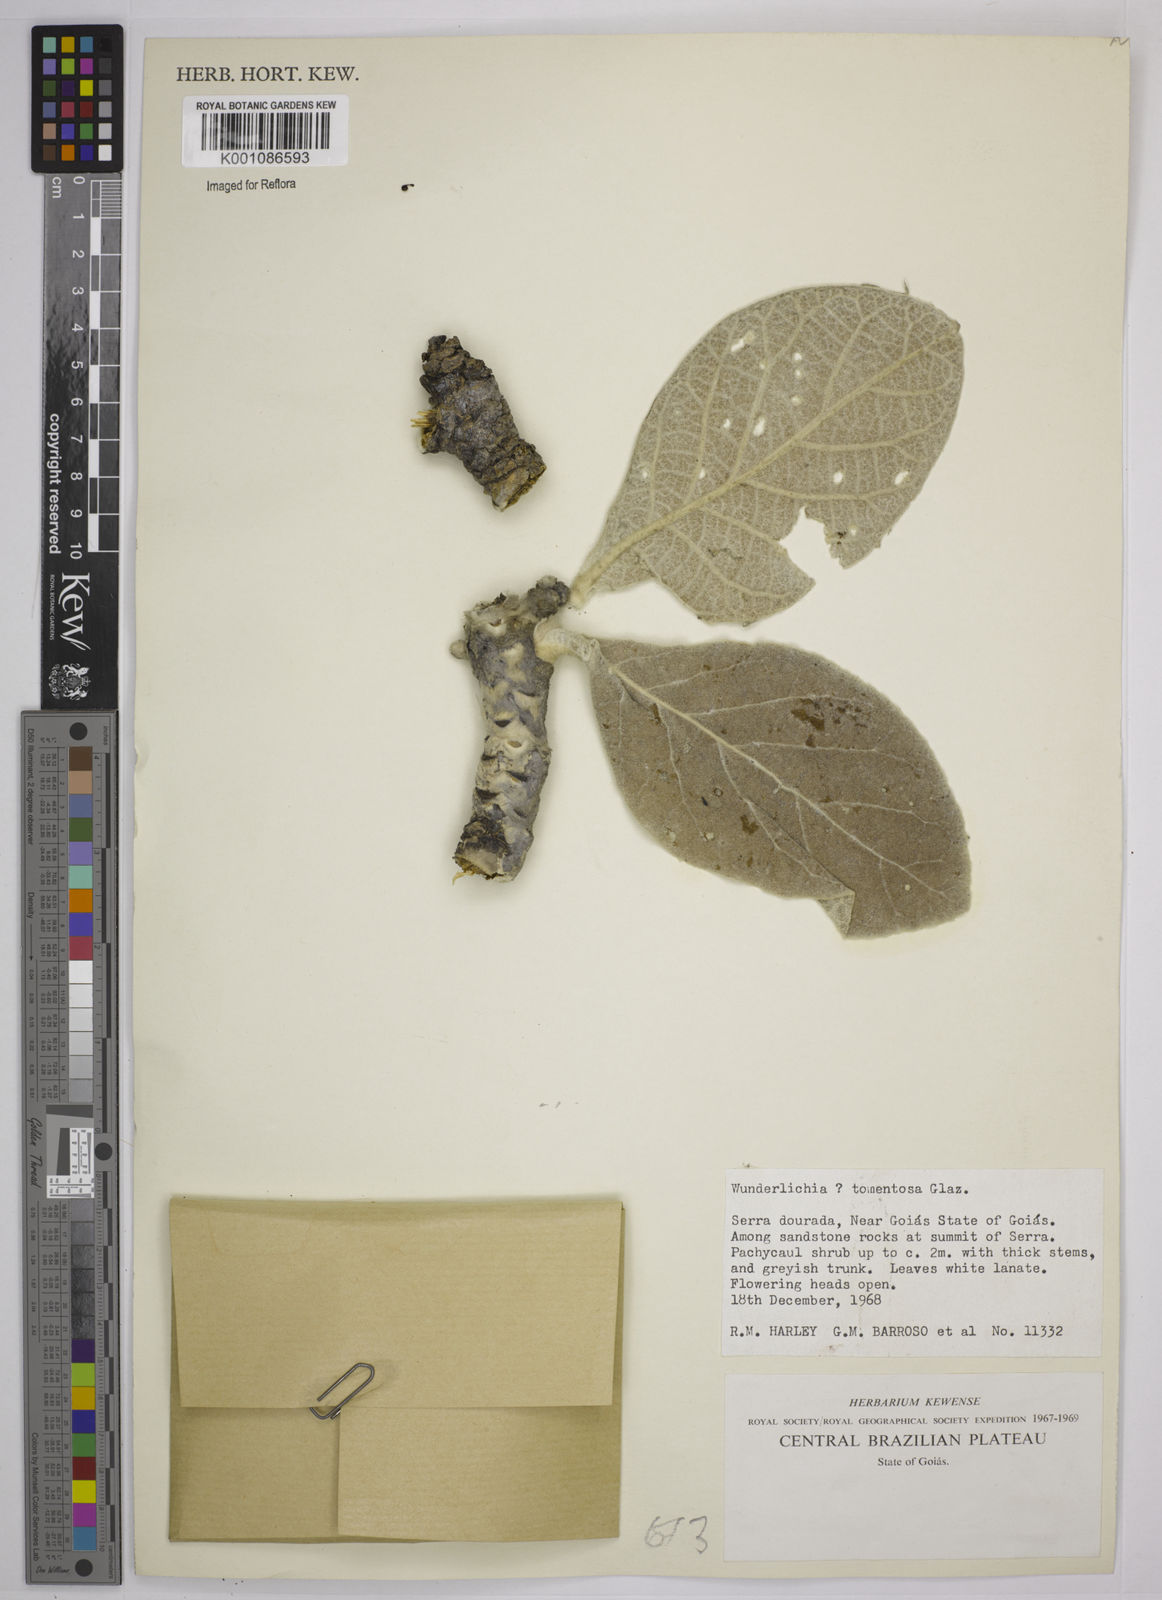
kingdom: Plantae
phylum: Tracheophyta
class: Magnoliopsida
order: Asterales
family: Asteraceae
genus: Wunderlichia
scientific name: Wunderlichia mirabilis
